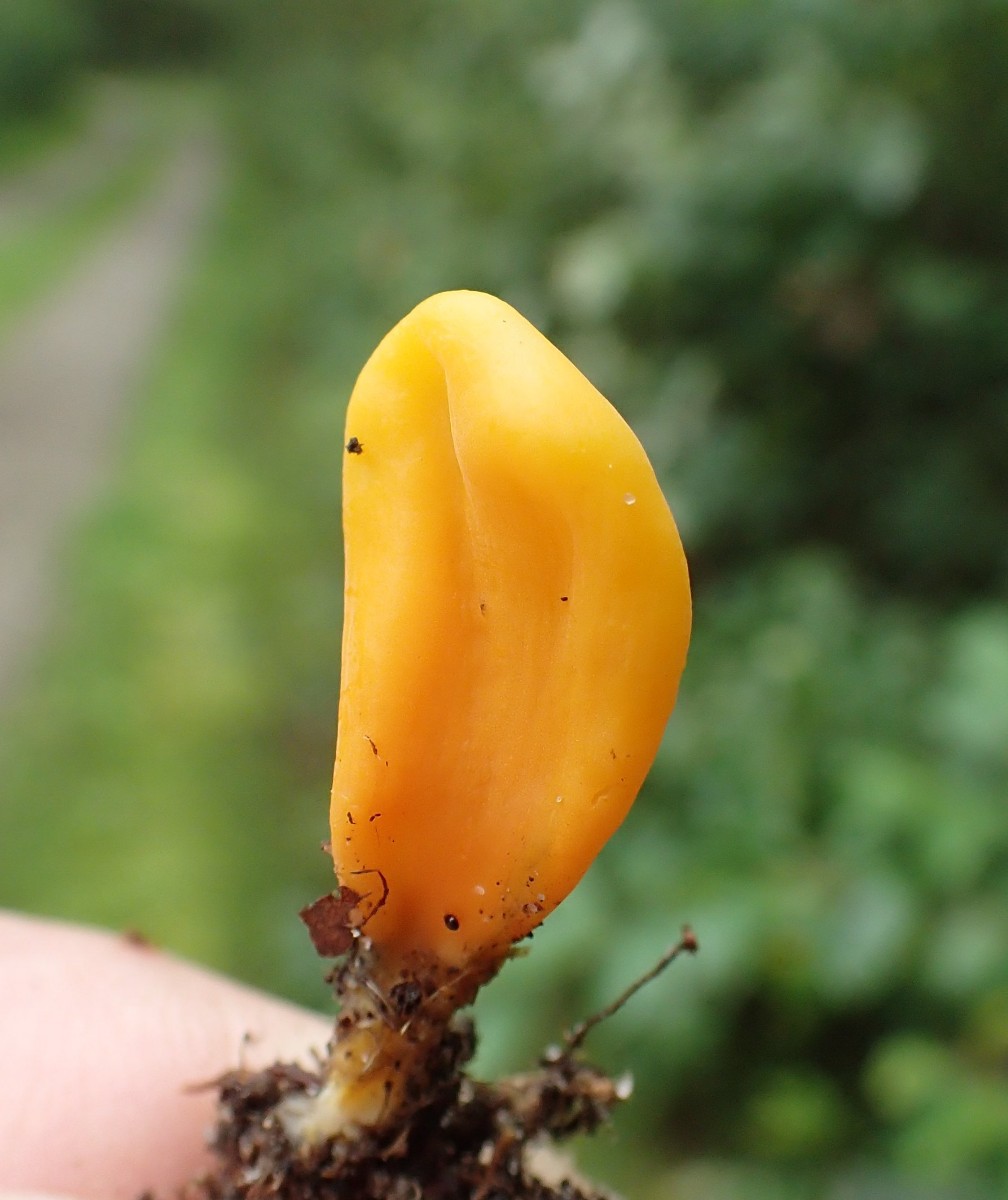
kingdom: Fungi
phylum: Basidiomycota
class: Agaricomycetes
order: Agaricales
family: Clavariaceae
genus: Clavulinopsis
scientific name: Clavulinopsis laeticolor
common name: flamme-køllesvamp
